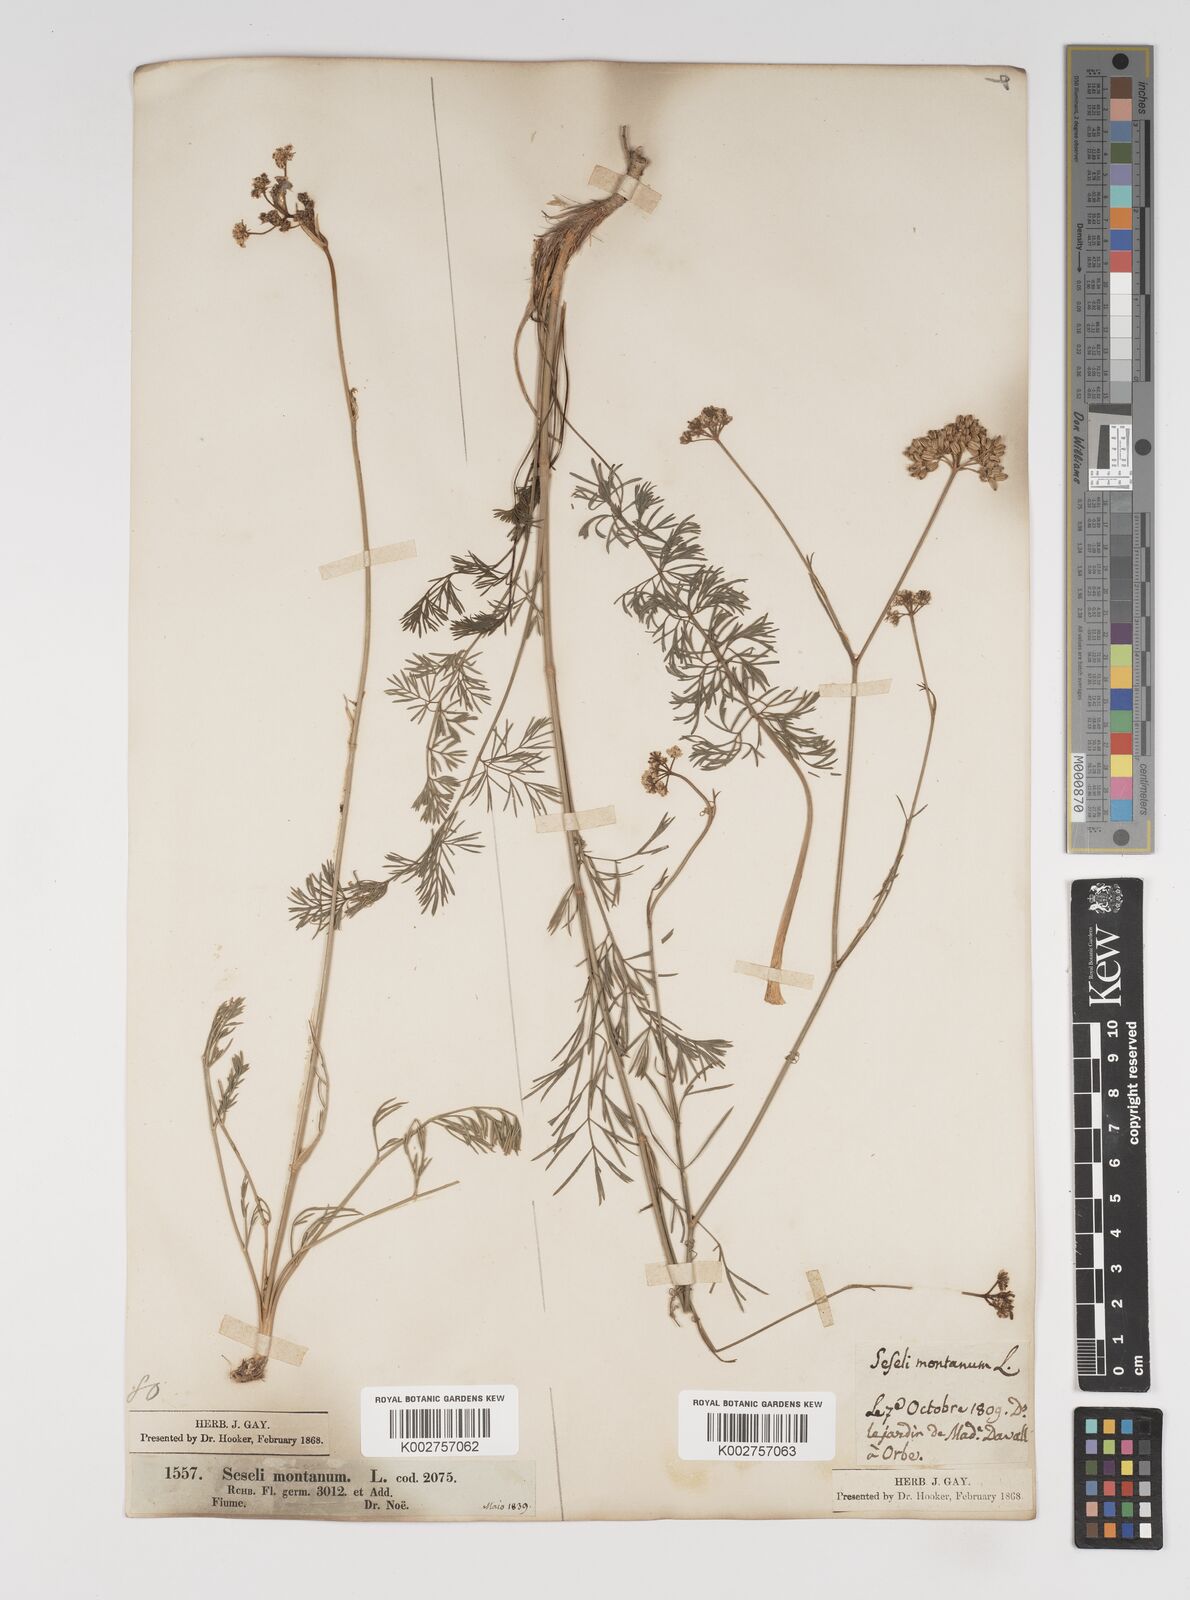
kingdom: Plantae
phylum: Tracheophyta
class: Magnoliopsida
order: Apiales
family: Apiaceae
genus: Seseli
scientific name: Seseli montanum
